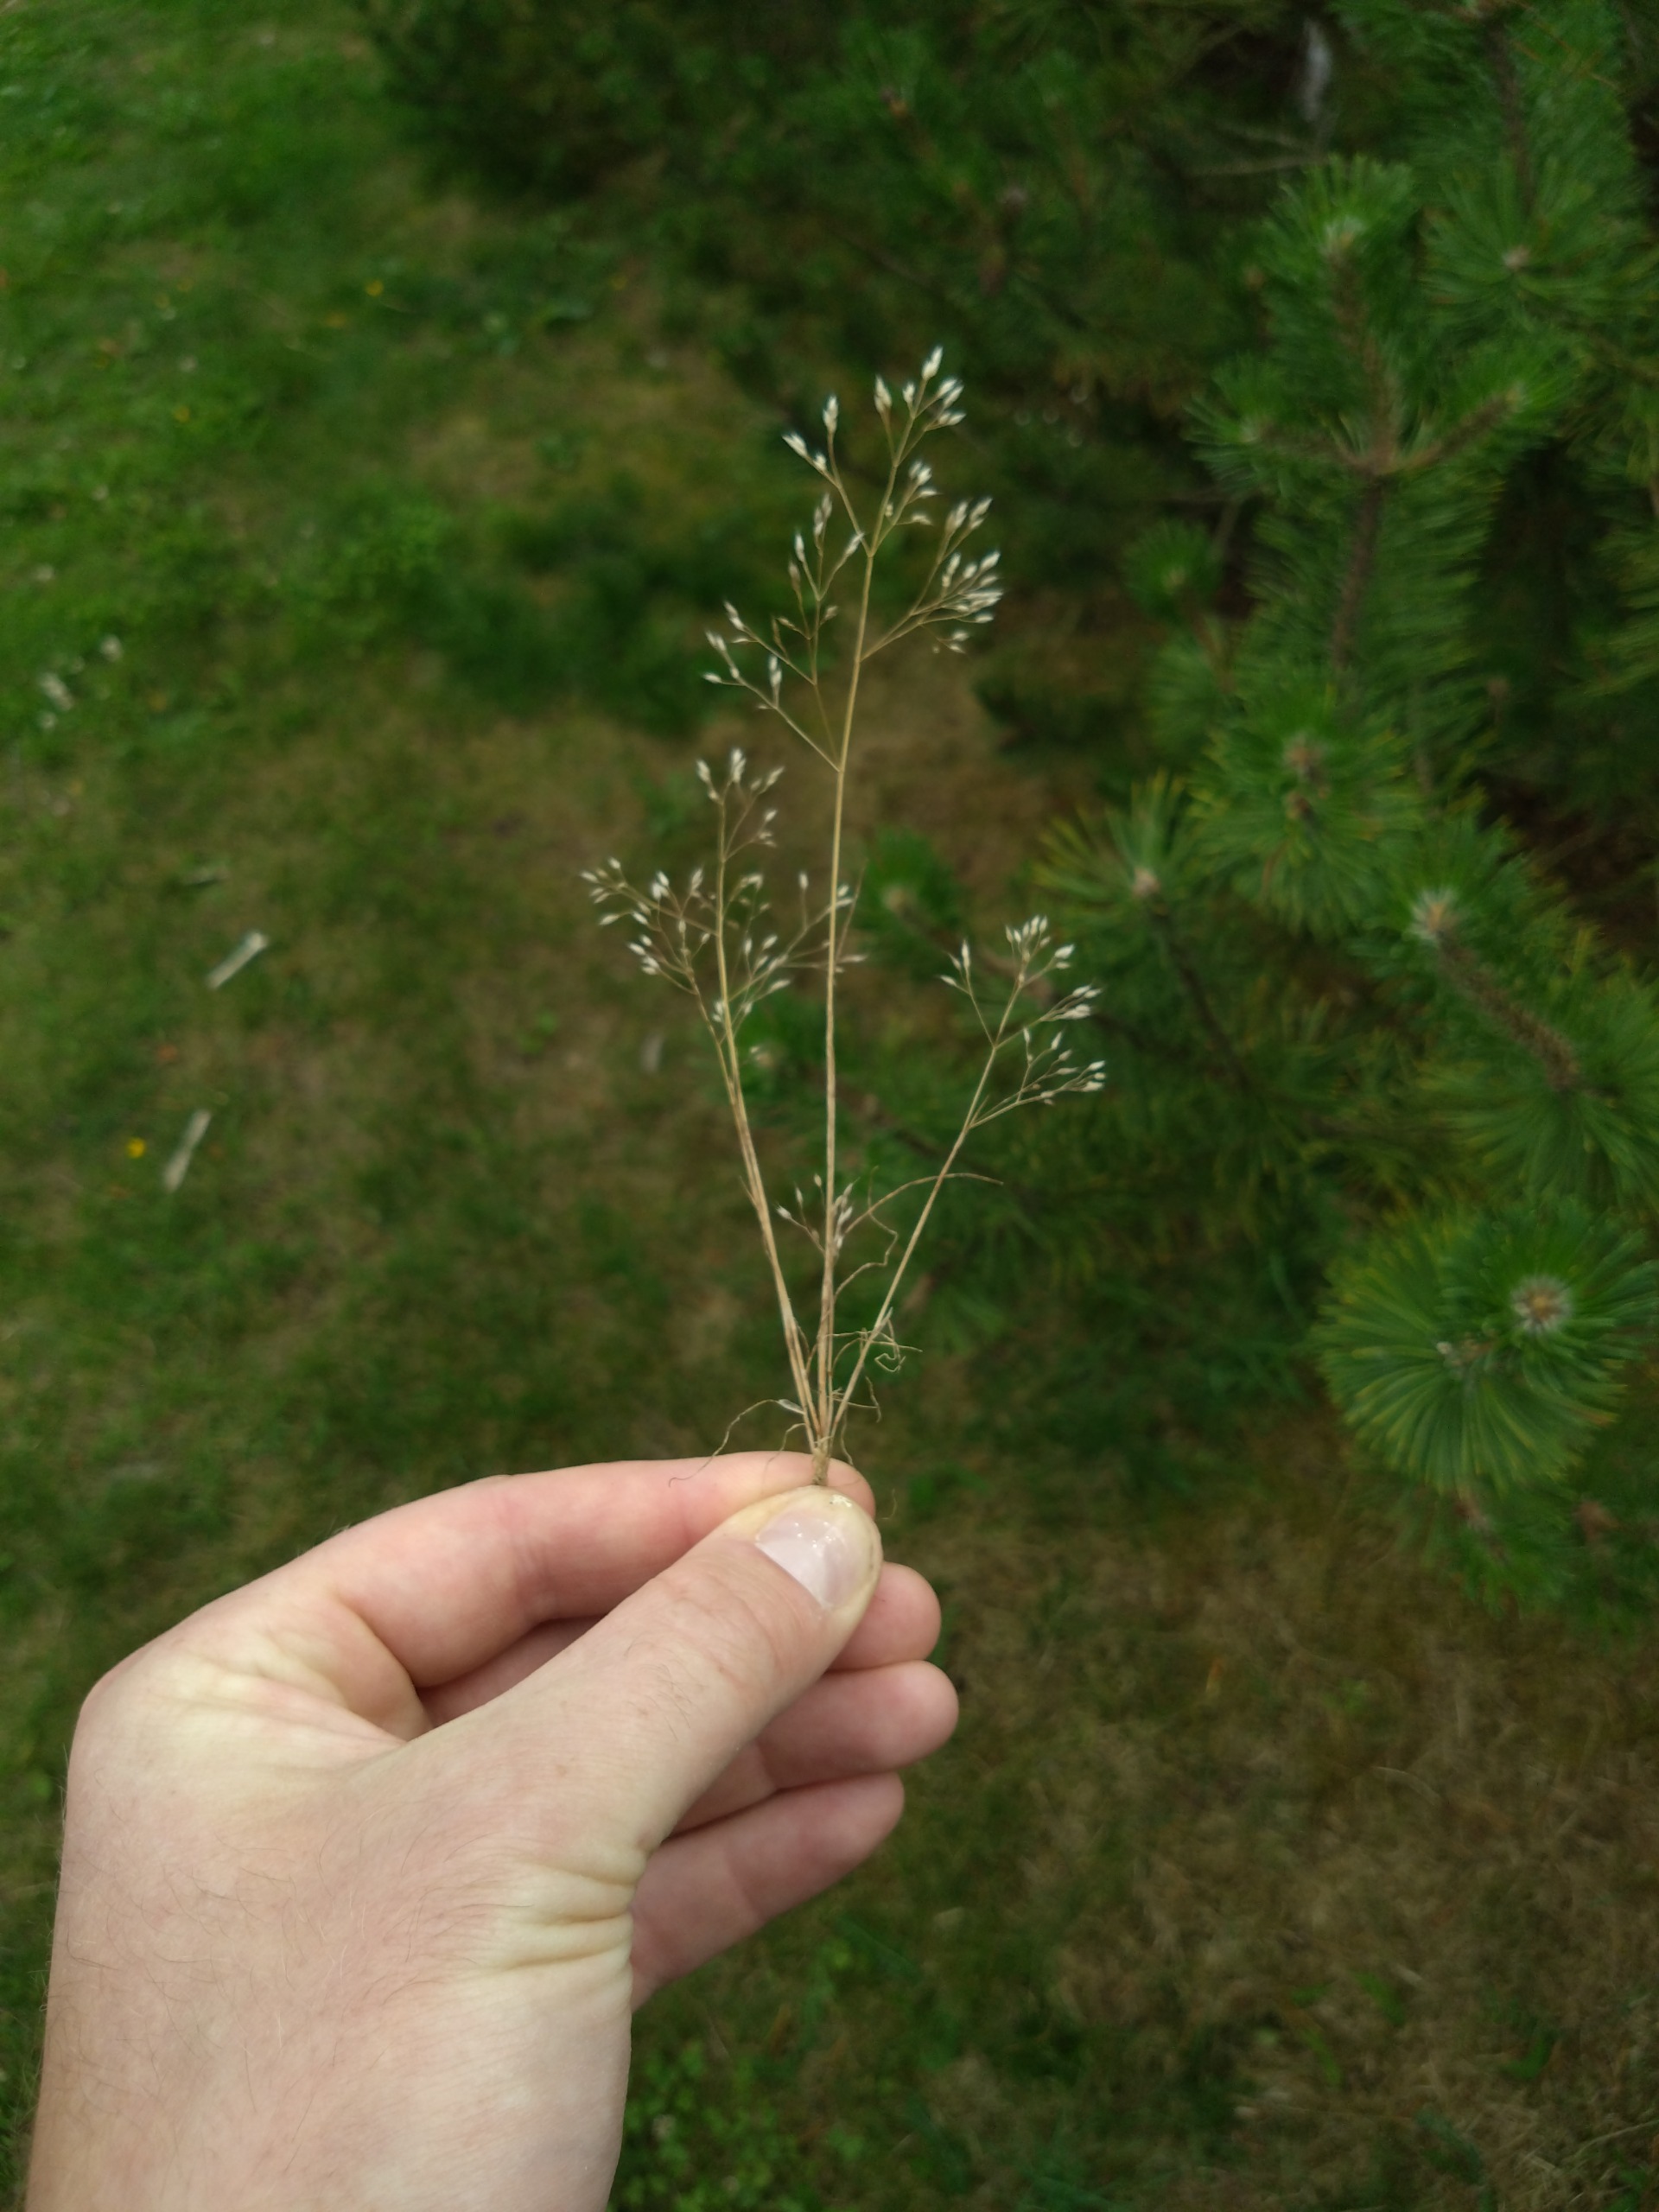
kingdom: Plantae
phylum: Tracheophyta
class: Liliopsida
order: Poales
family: Poaceae
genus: Aira
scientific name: Aira caryophyllea
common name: Udspærret dværgbunke
